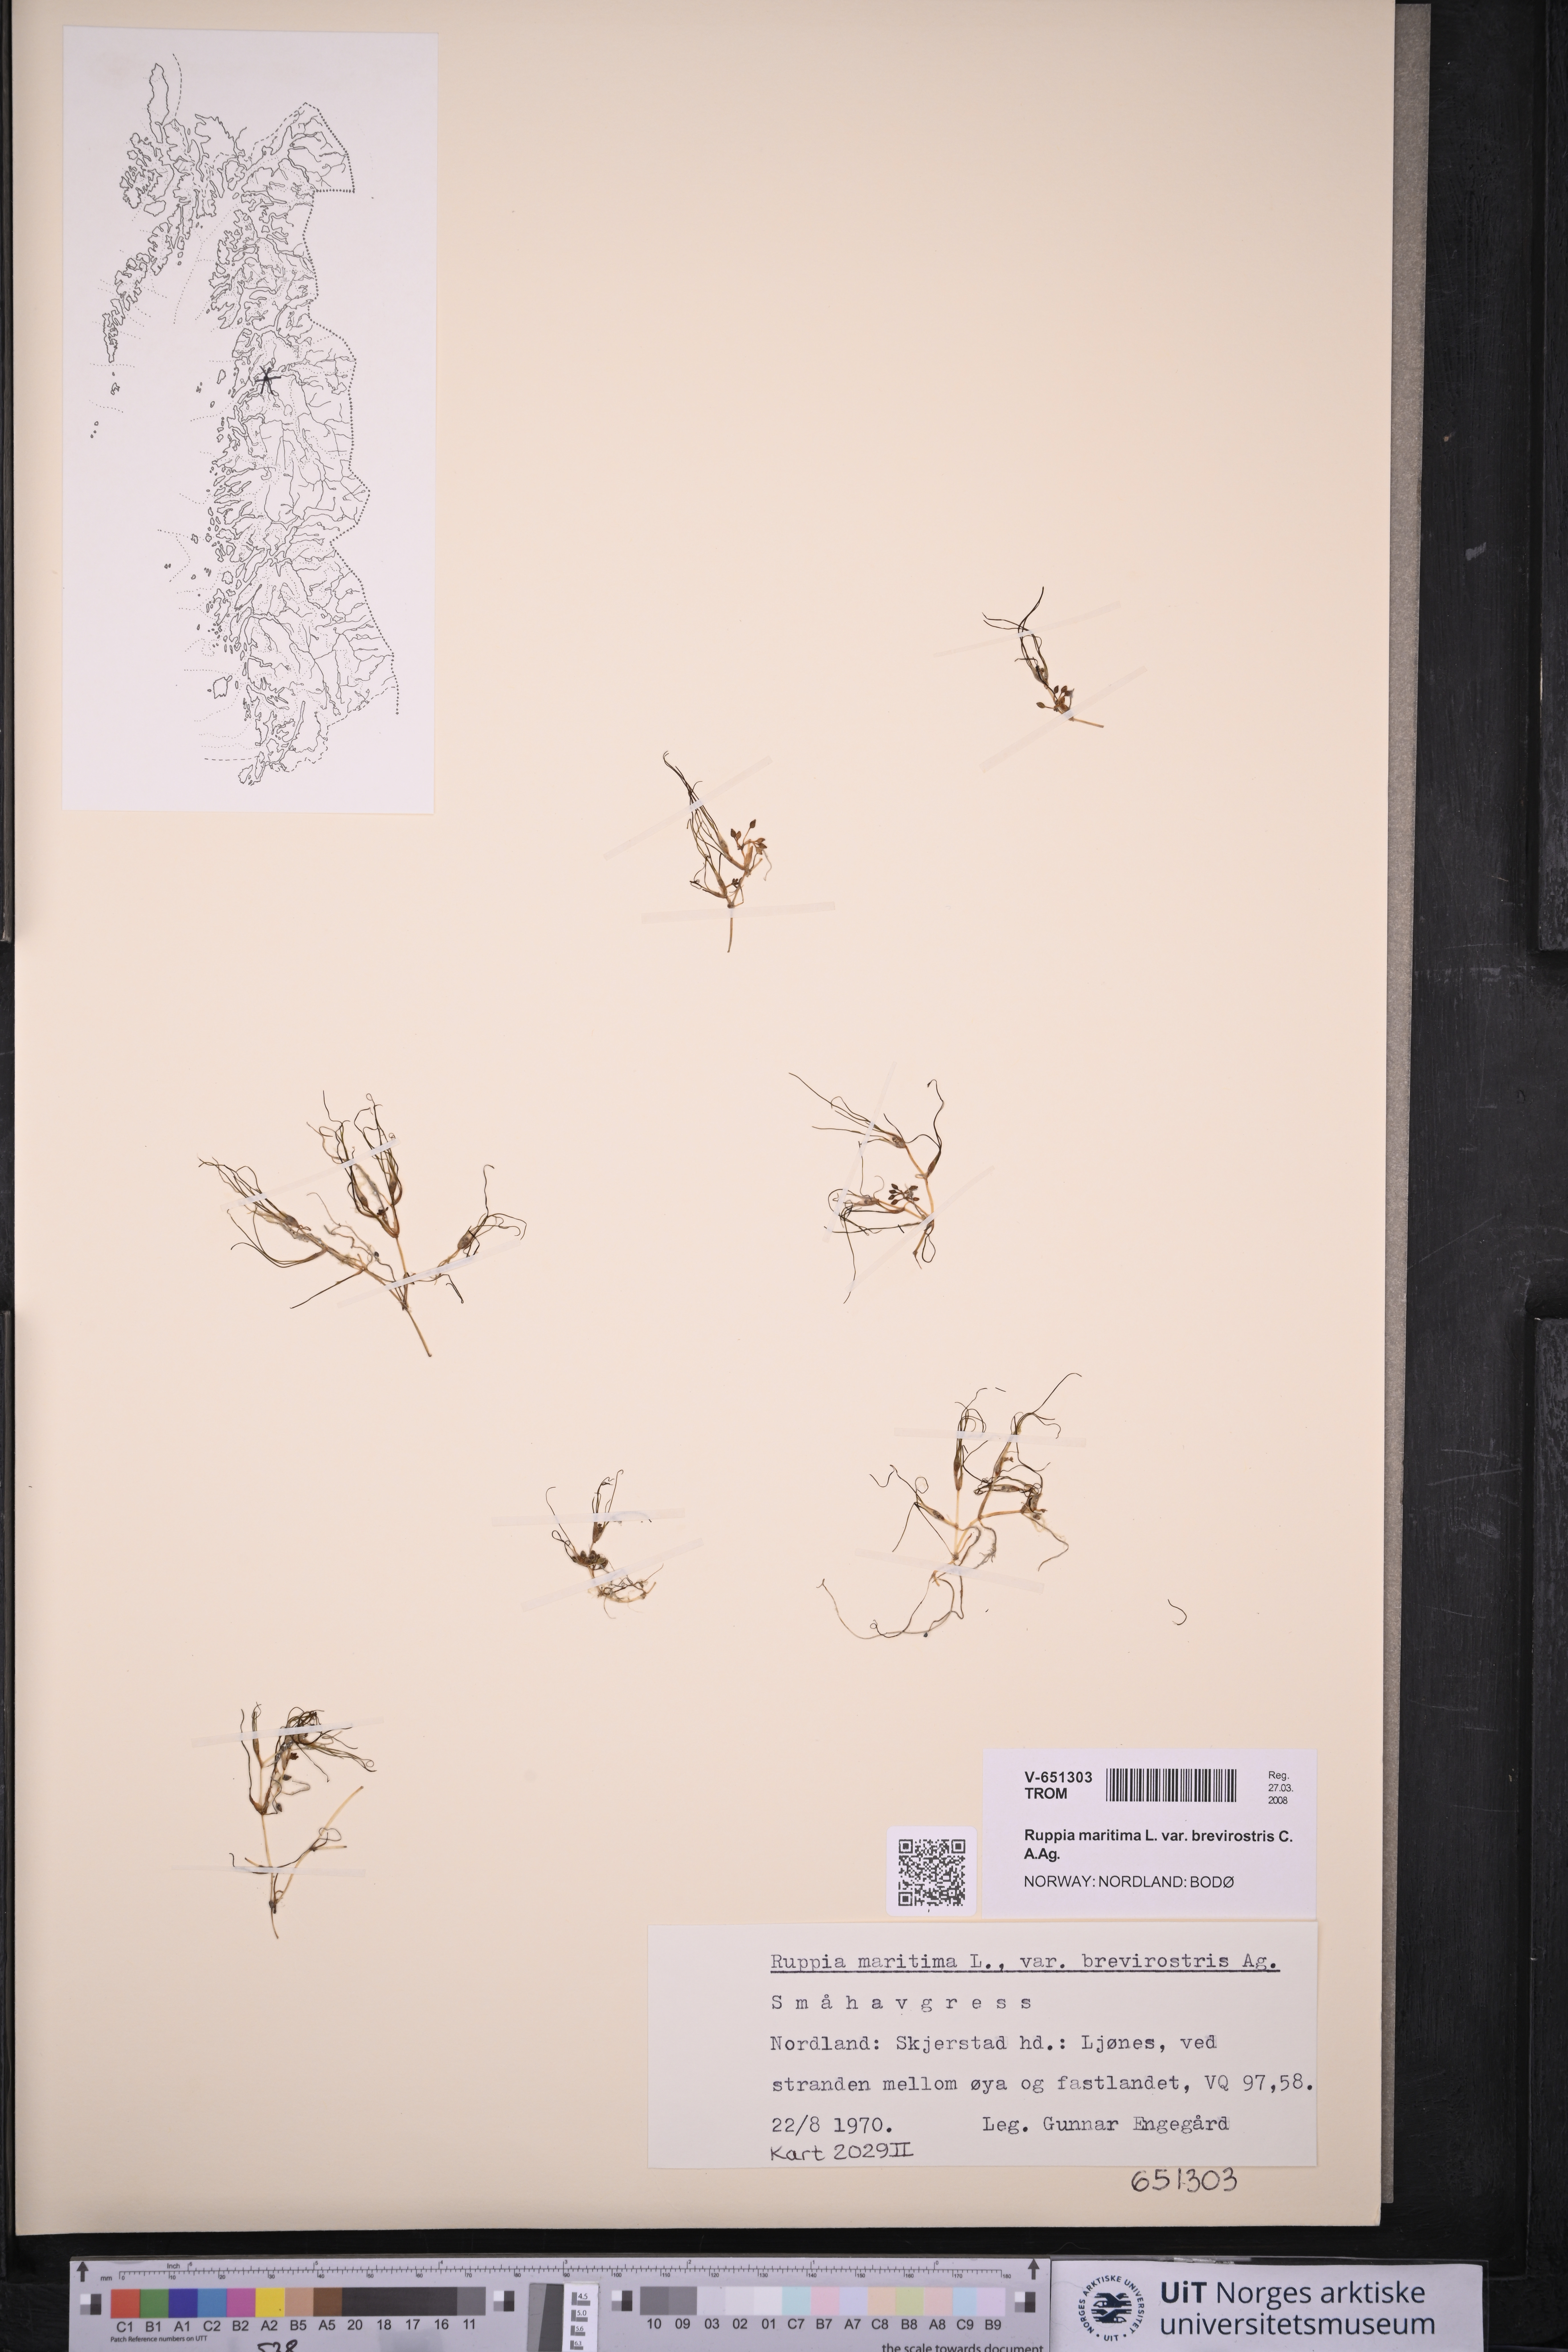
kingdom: Plantae
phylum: Tracheophyta
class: Liliopsida
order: Alismatales
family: Ruppiaceae
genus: Ruppia
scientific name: Ruppia maritima
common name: Beaked tasselweed
